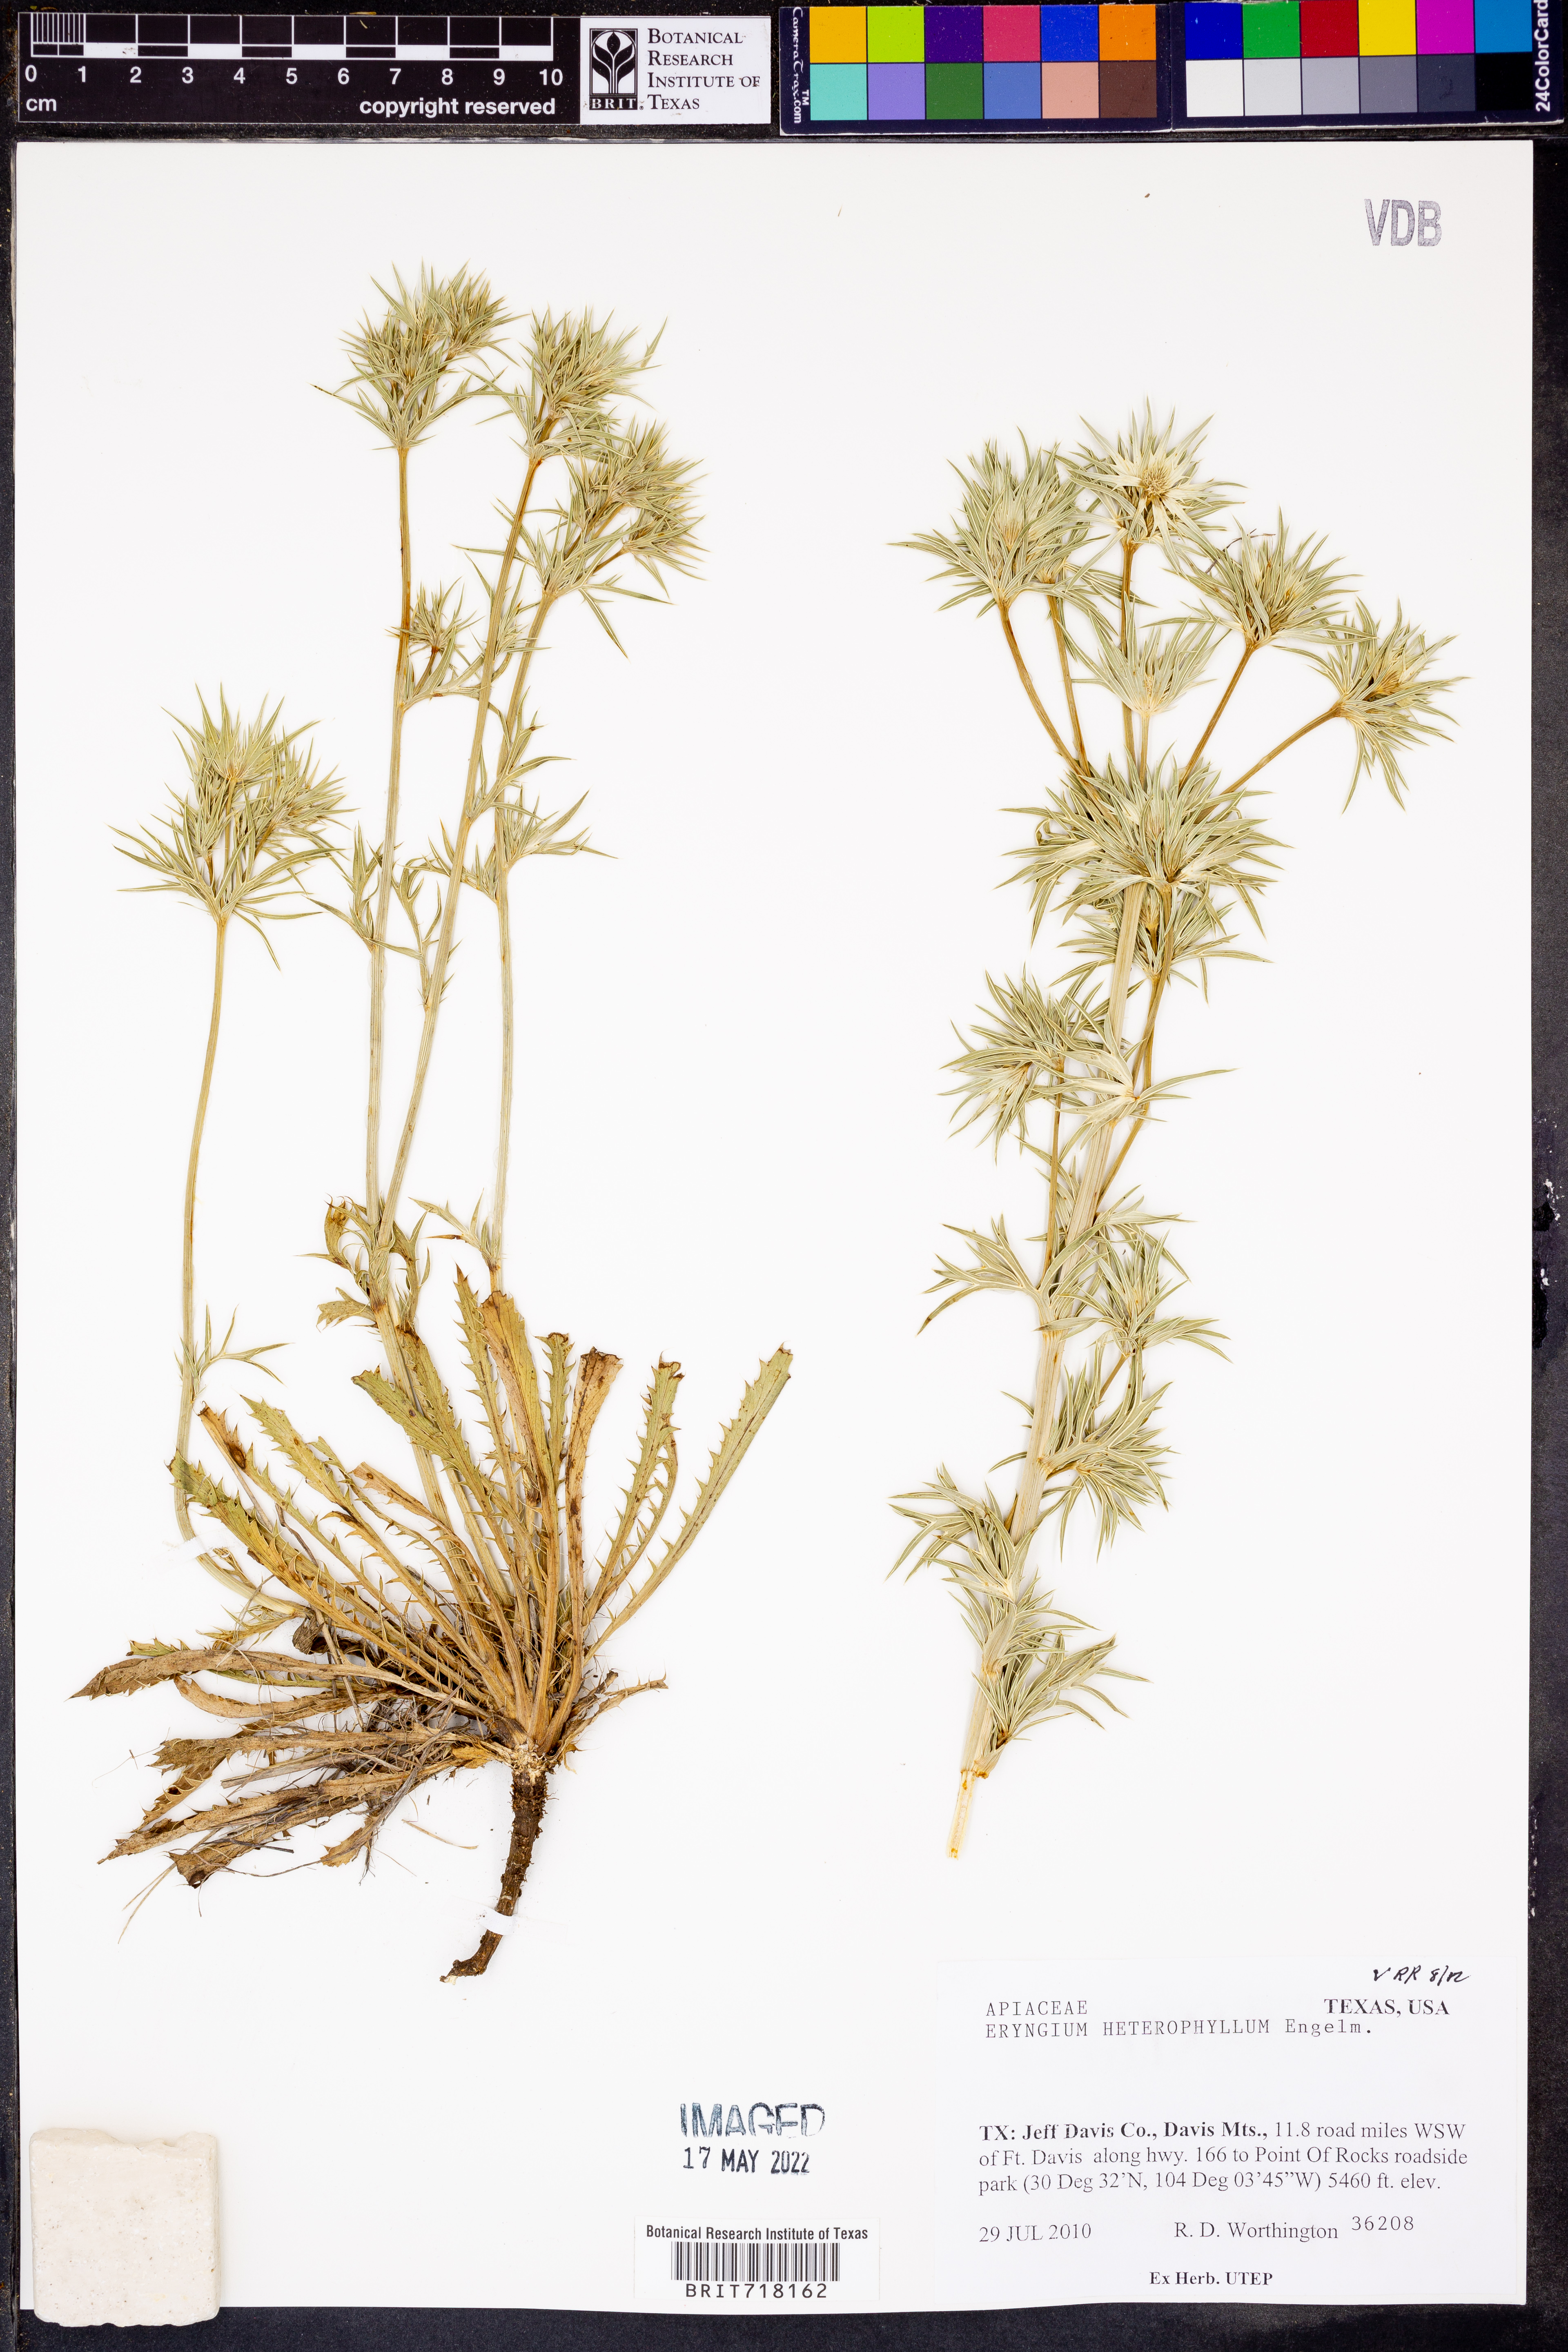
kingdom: Plantae
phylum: Tracheophyta
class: Magnoliopsida
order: Apiales
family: Apiaceae
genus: Eryngium
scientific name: Eryngium heterophyllum
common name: Mexican thistle
